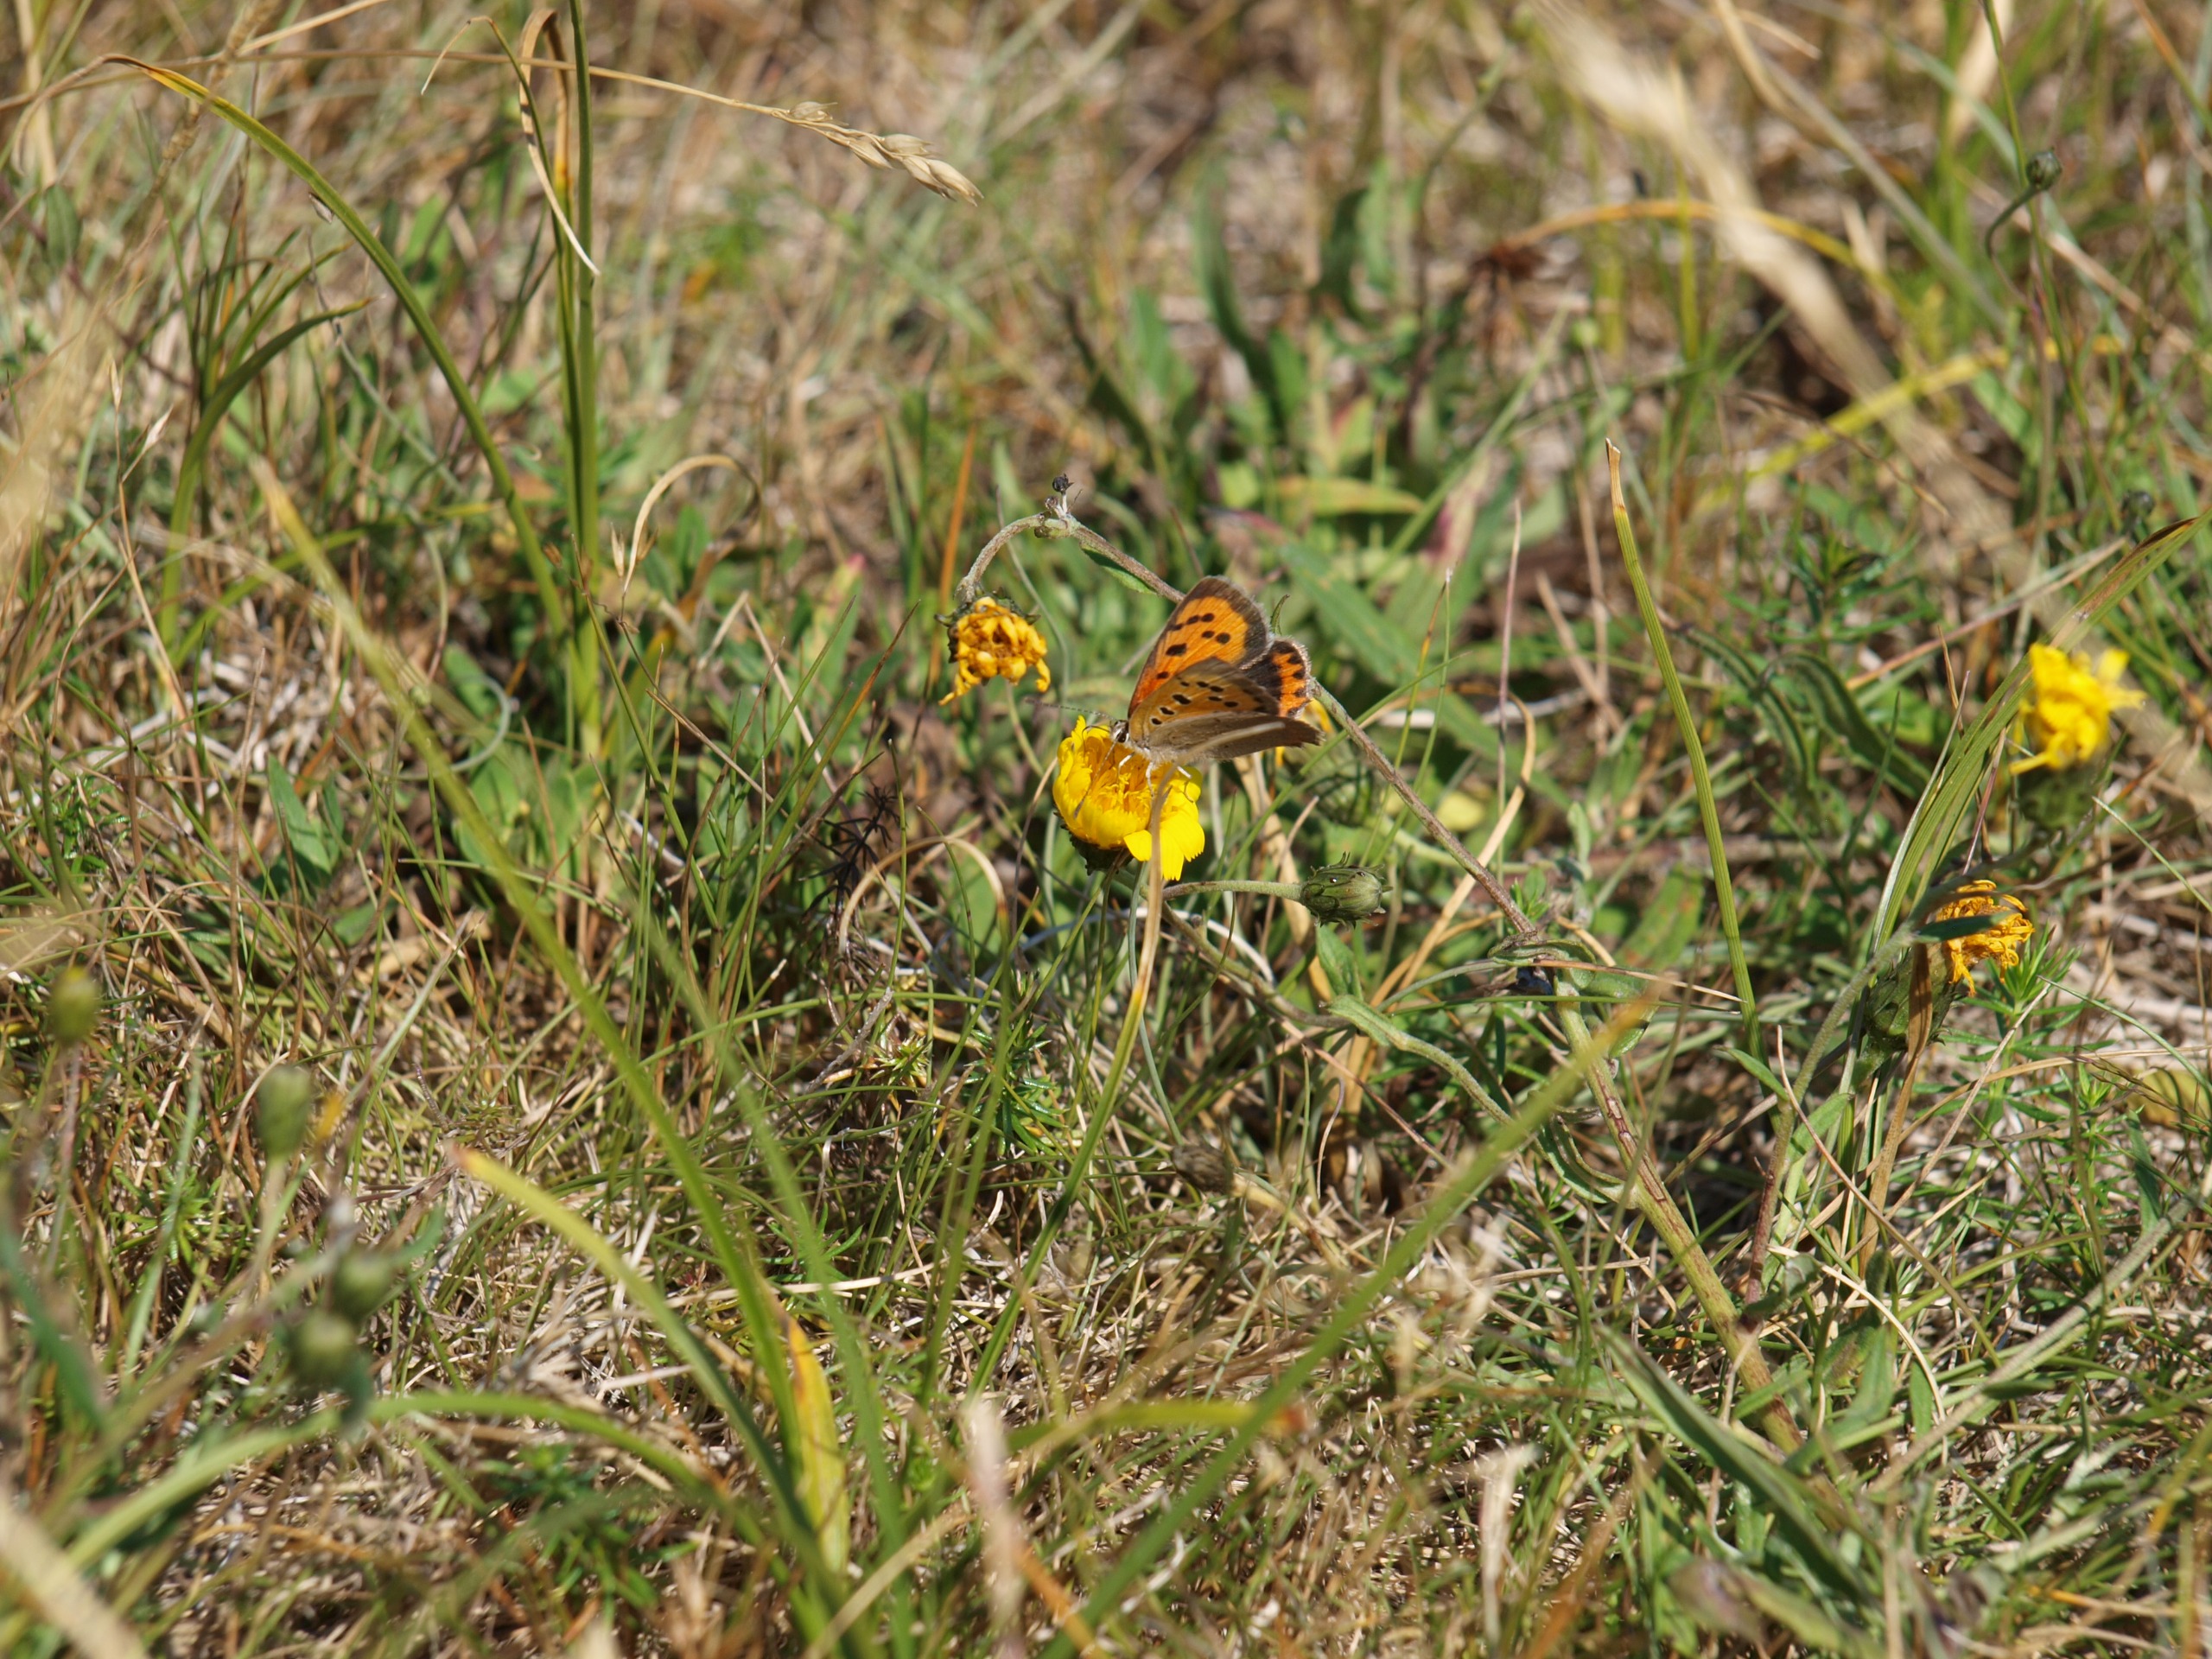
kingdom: Animalia
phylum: Arthropoda
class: Insecta
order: Lepidoptera
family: Lycaenidae
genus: Lycaena
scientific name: Lycaena phlaeas
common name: Lille ildfugl
